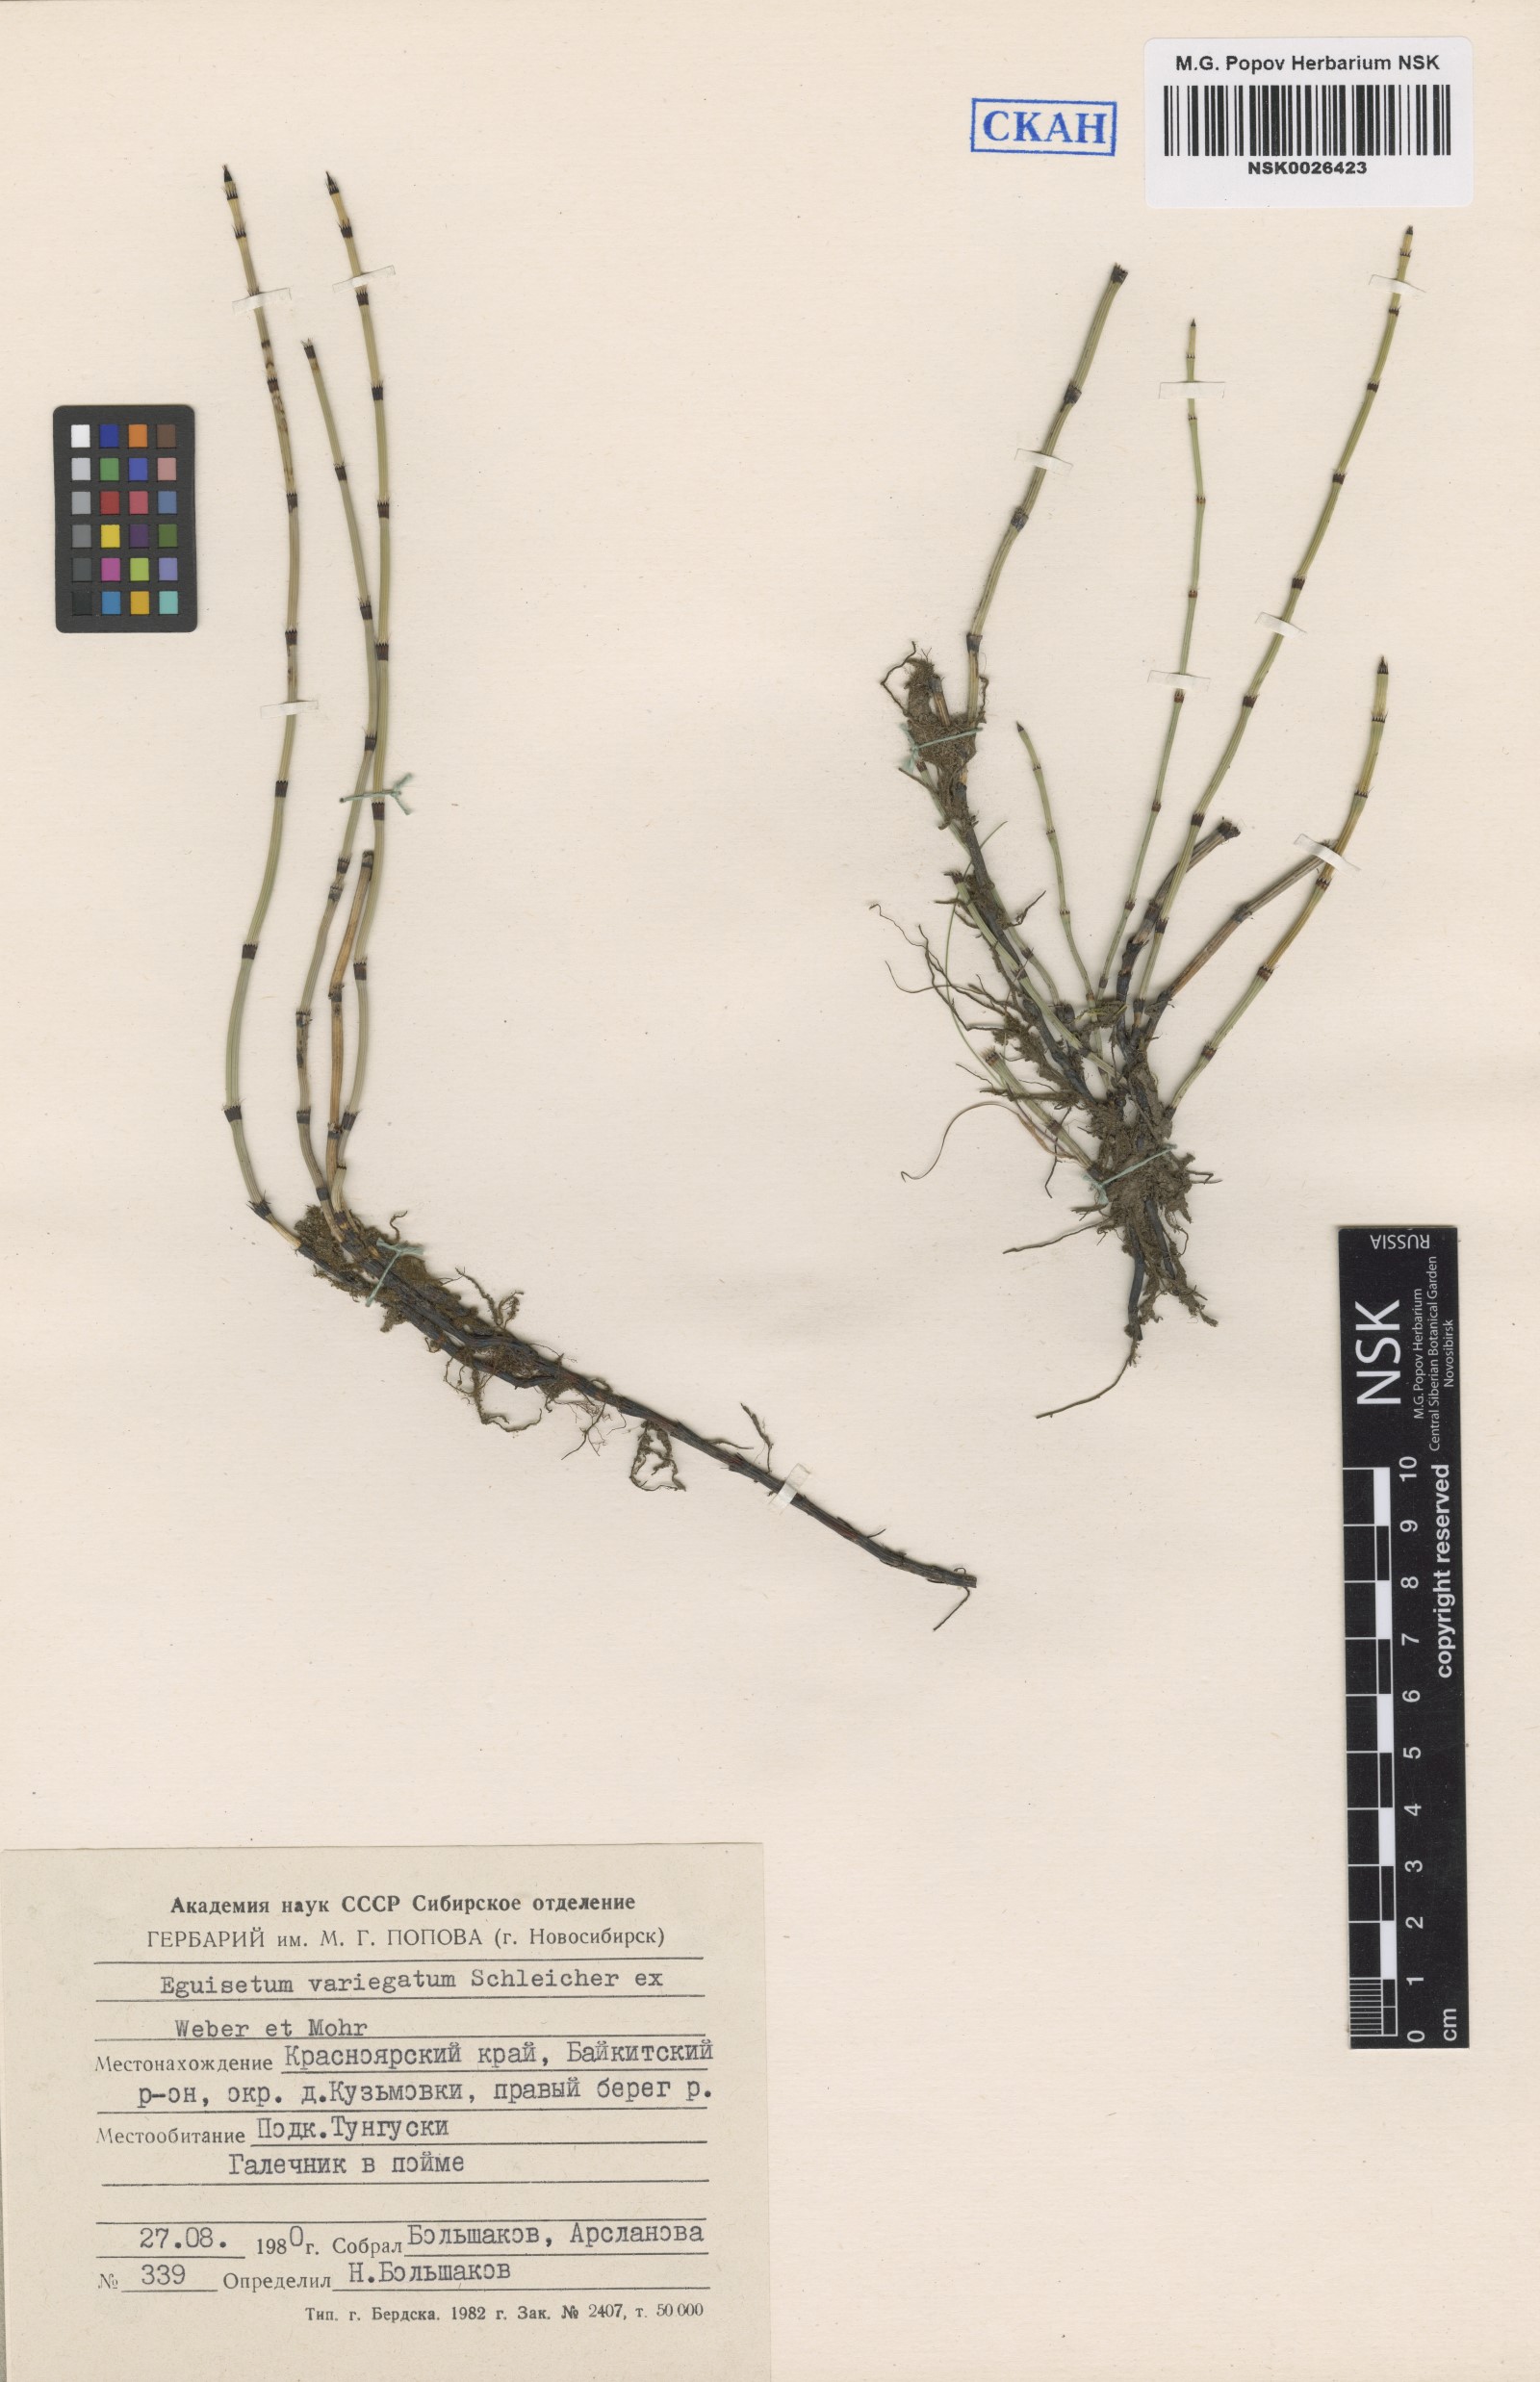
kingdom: Plantae
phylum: Tracheophyta
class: Polypodiopsida
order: Equisetales
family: Equisetaceae
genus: Equisetum
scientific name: Equisetum variegatum
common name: Variegated horsetail
